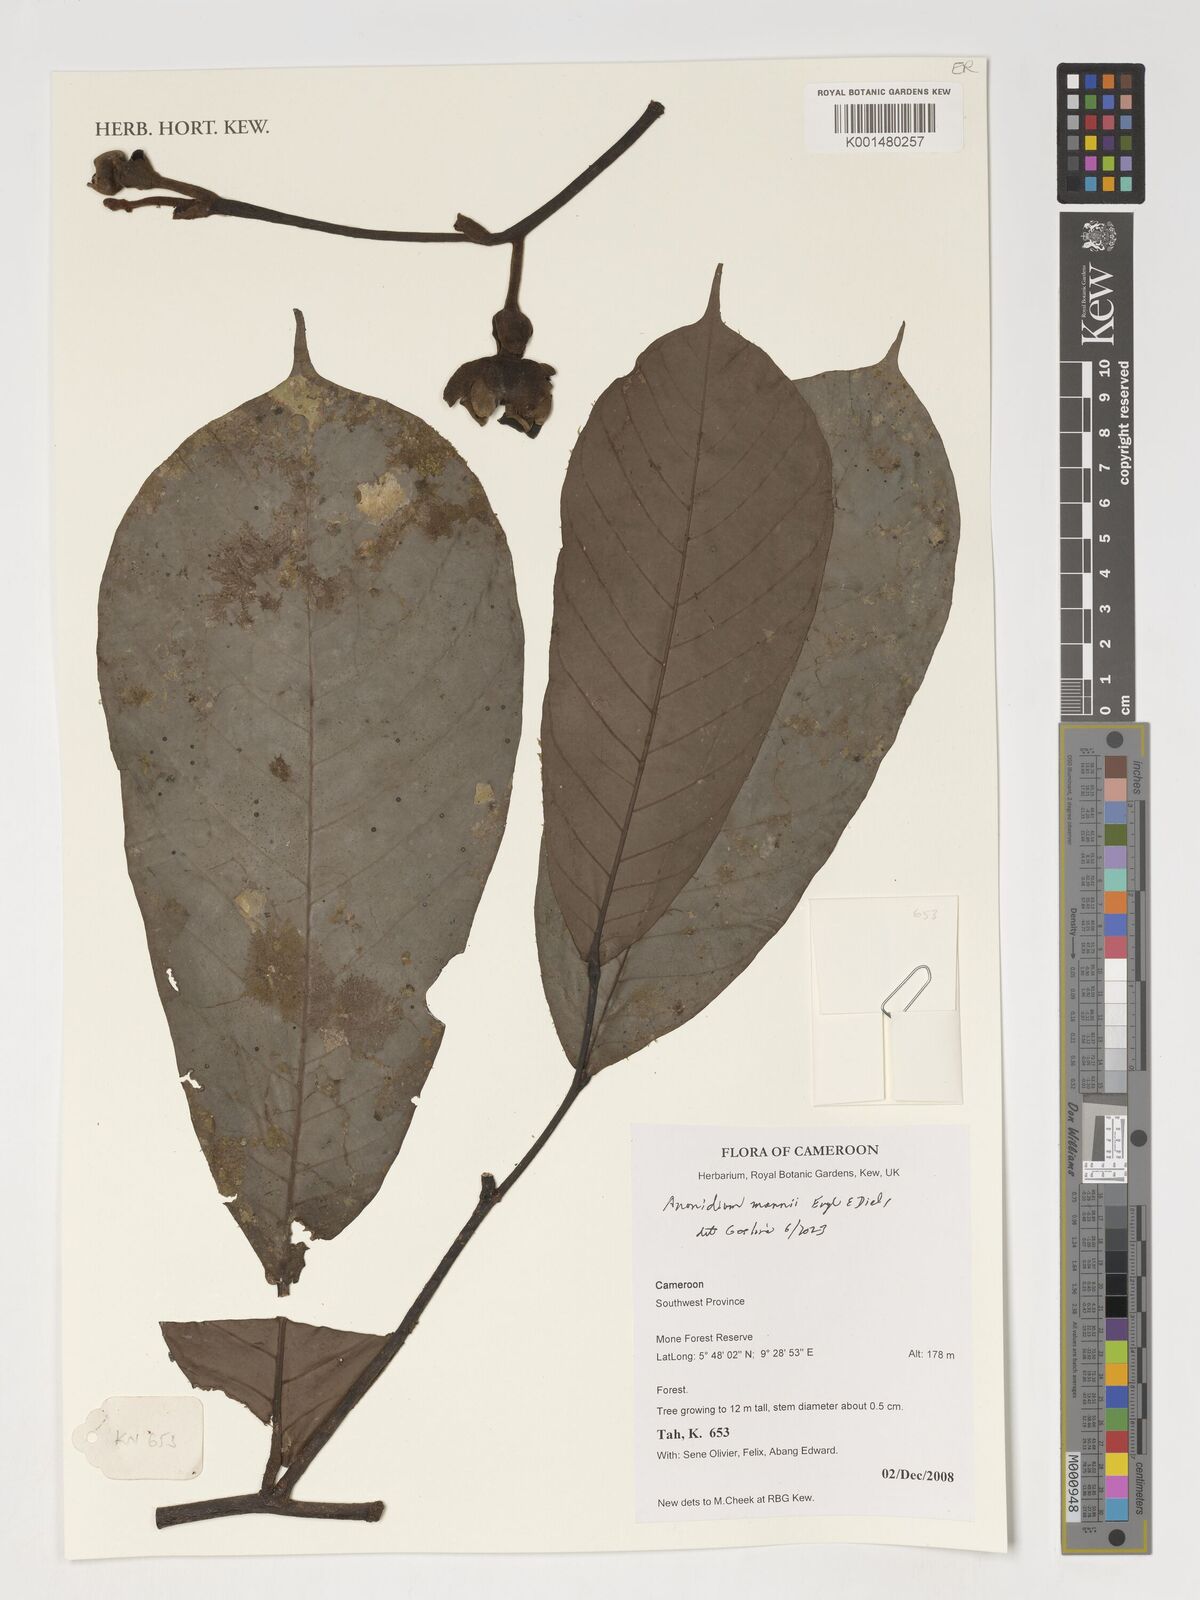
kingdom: Plantae
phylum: Tracheophyta
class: Magnoliopsida
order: Magnoliales
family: Annonaceae
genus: Anonidium
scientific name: Anonidium mannii
